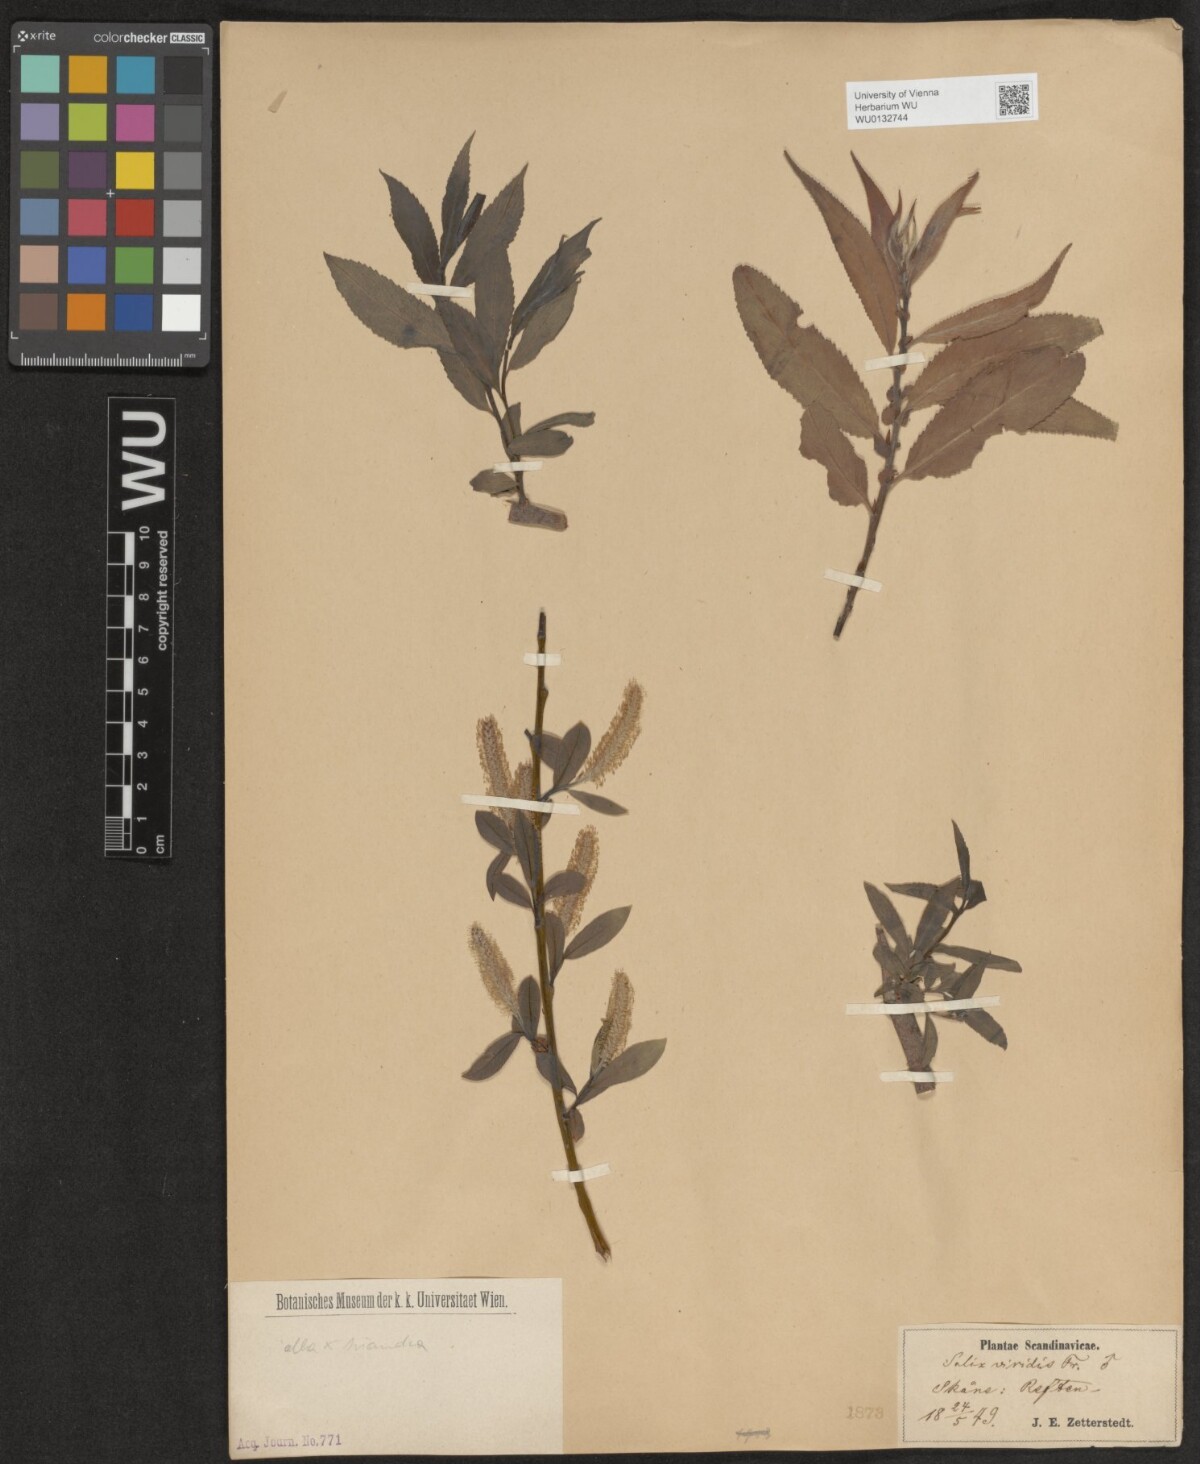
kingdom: Plantae
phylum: Tracheophyta
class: Magnoliopsida
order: Malpighiales
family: Salicaceae
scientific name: Salicaceae
